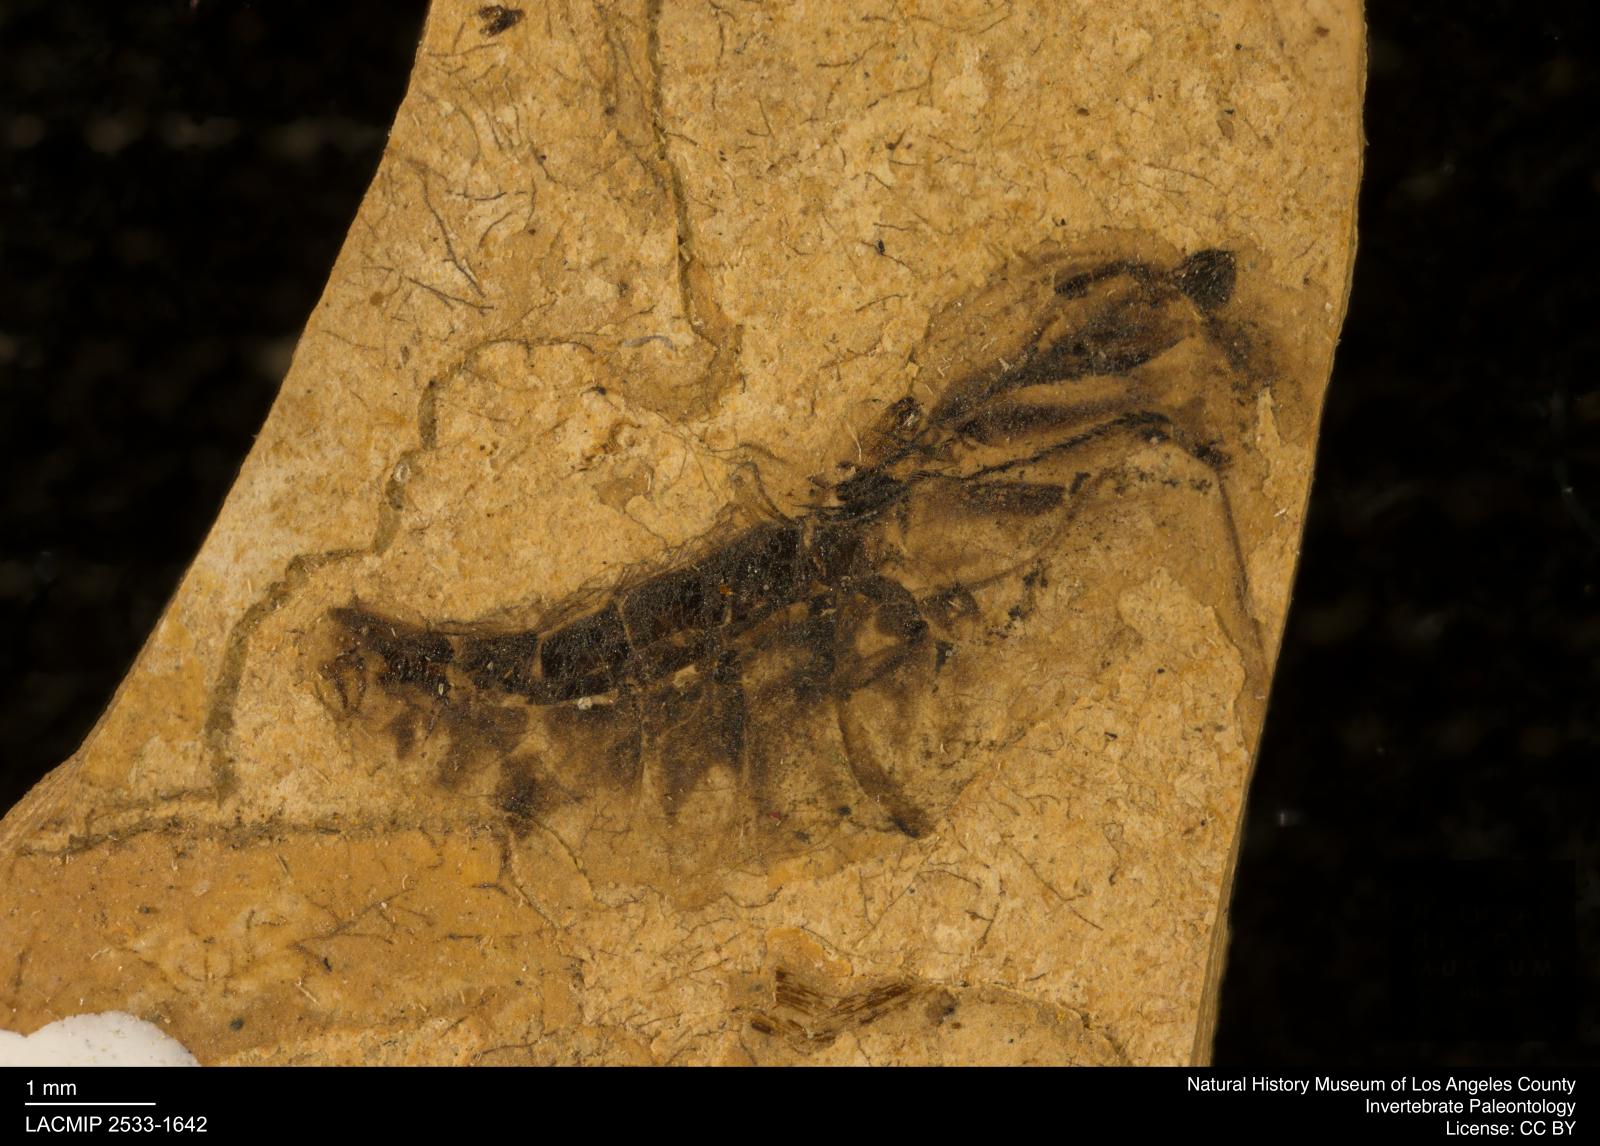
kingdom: Animalia
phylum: Arthropoda
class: Insecta
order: Hemiptera
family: Notonectidae
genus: Notonecta
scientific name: Notonecta
